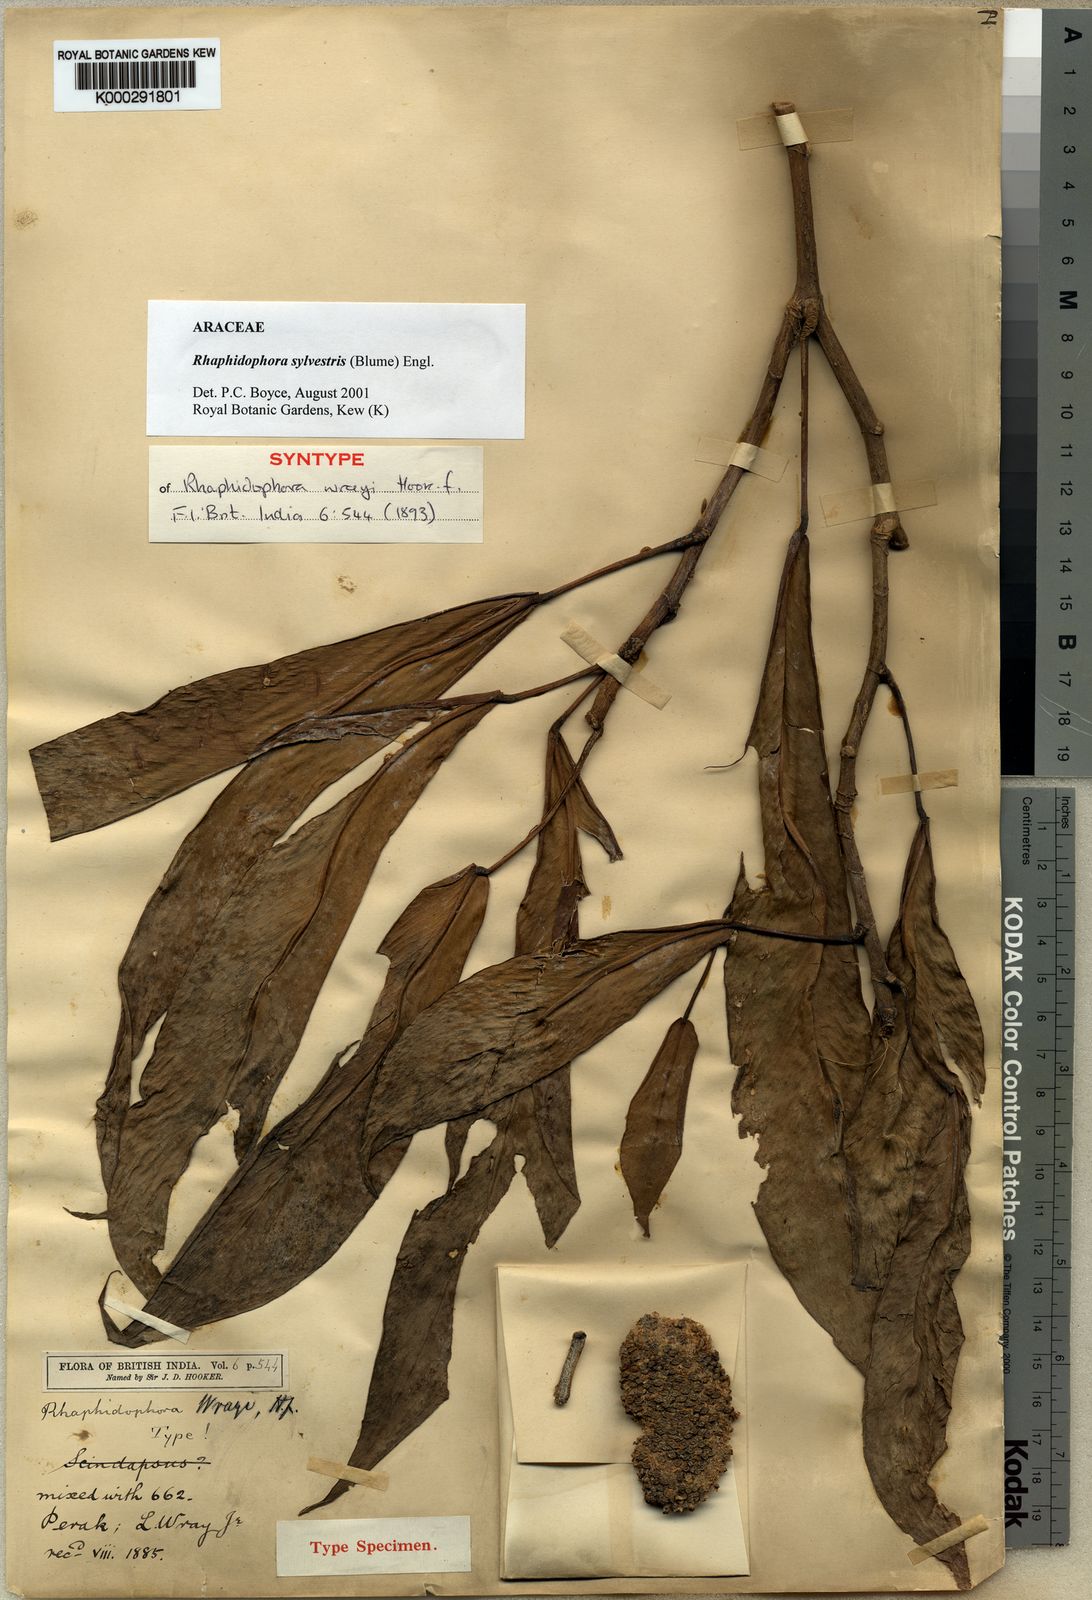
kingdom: Plantae
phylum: Tracheophyta
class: Liliopsida
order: Alismatales
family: Araceae
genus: Rhaphidophora
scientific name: Rhaphidophora sylvestris
